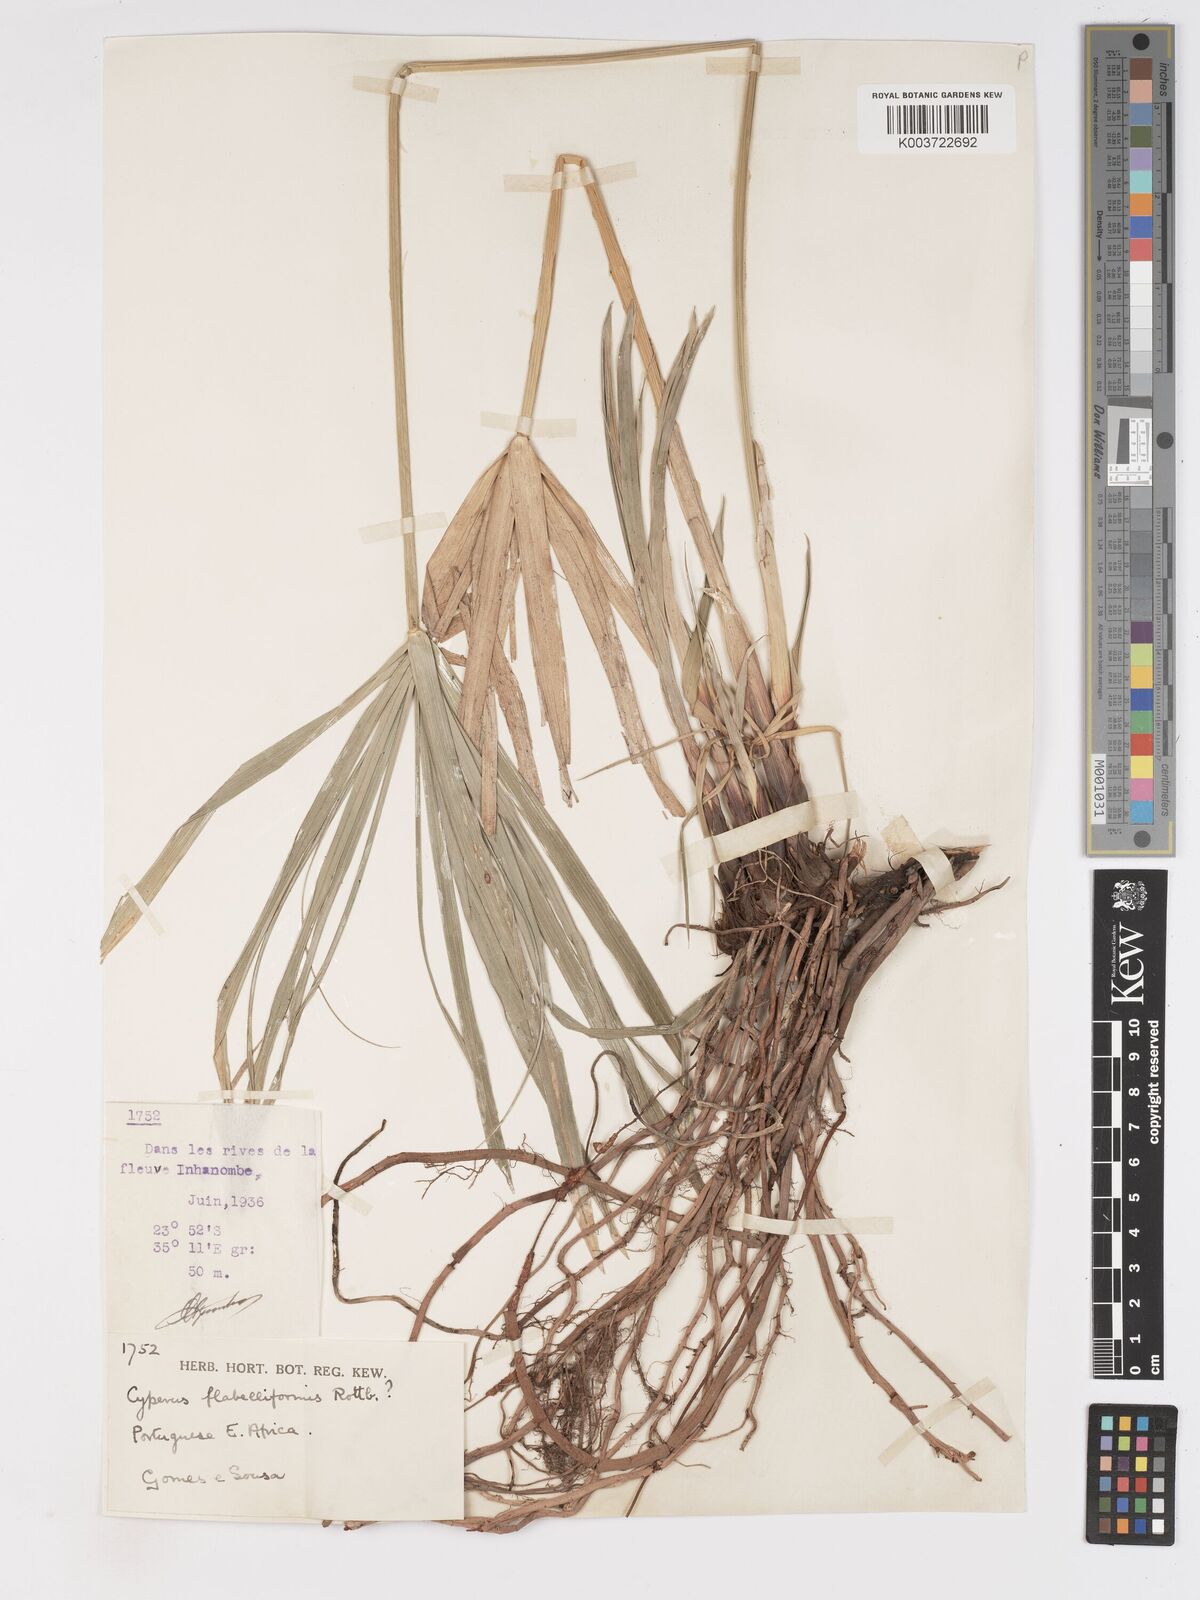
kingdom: Plantae
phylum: Tracheophyta
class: Liliopsida
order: Poales
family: Cyperaceae
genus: Cyperus
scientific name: Cyperus alternifolius
